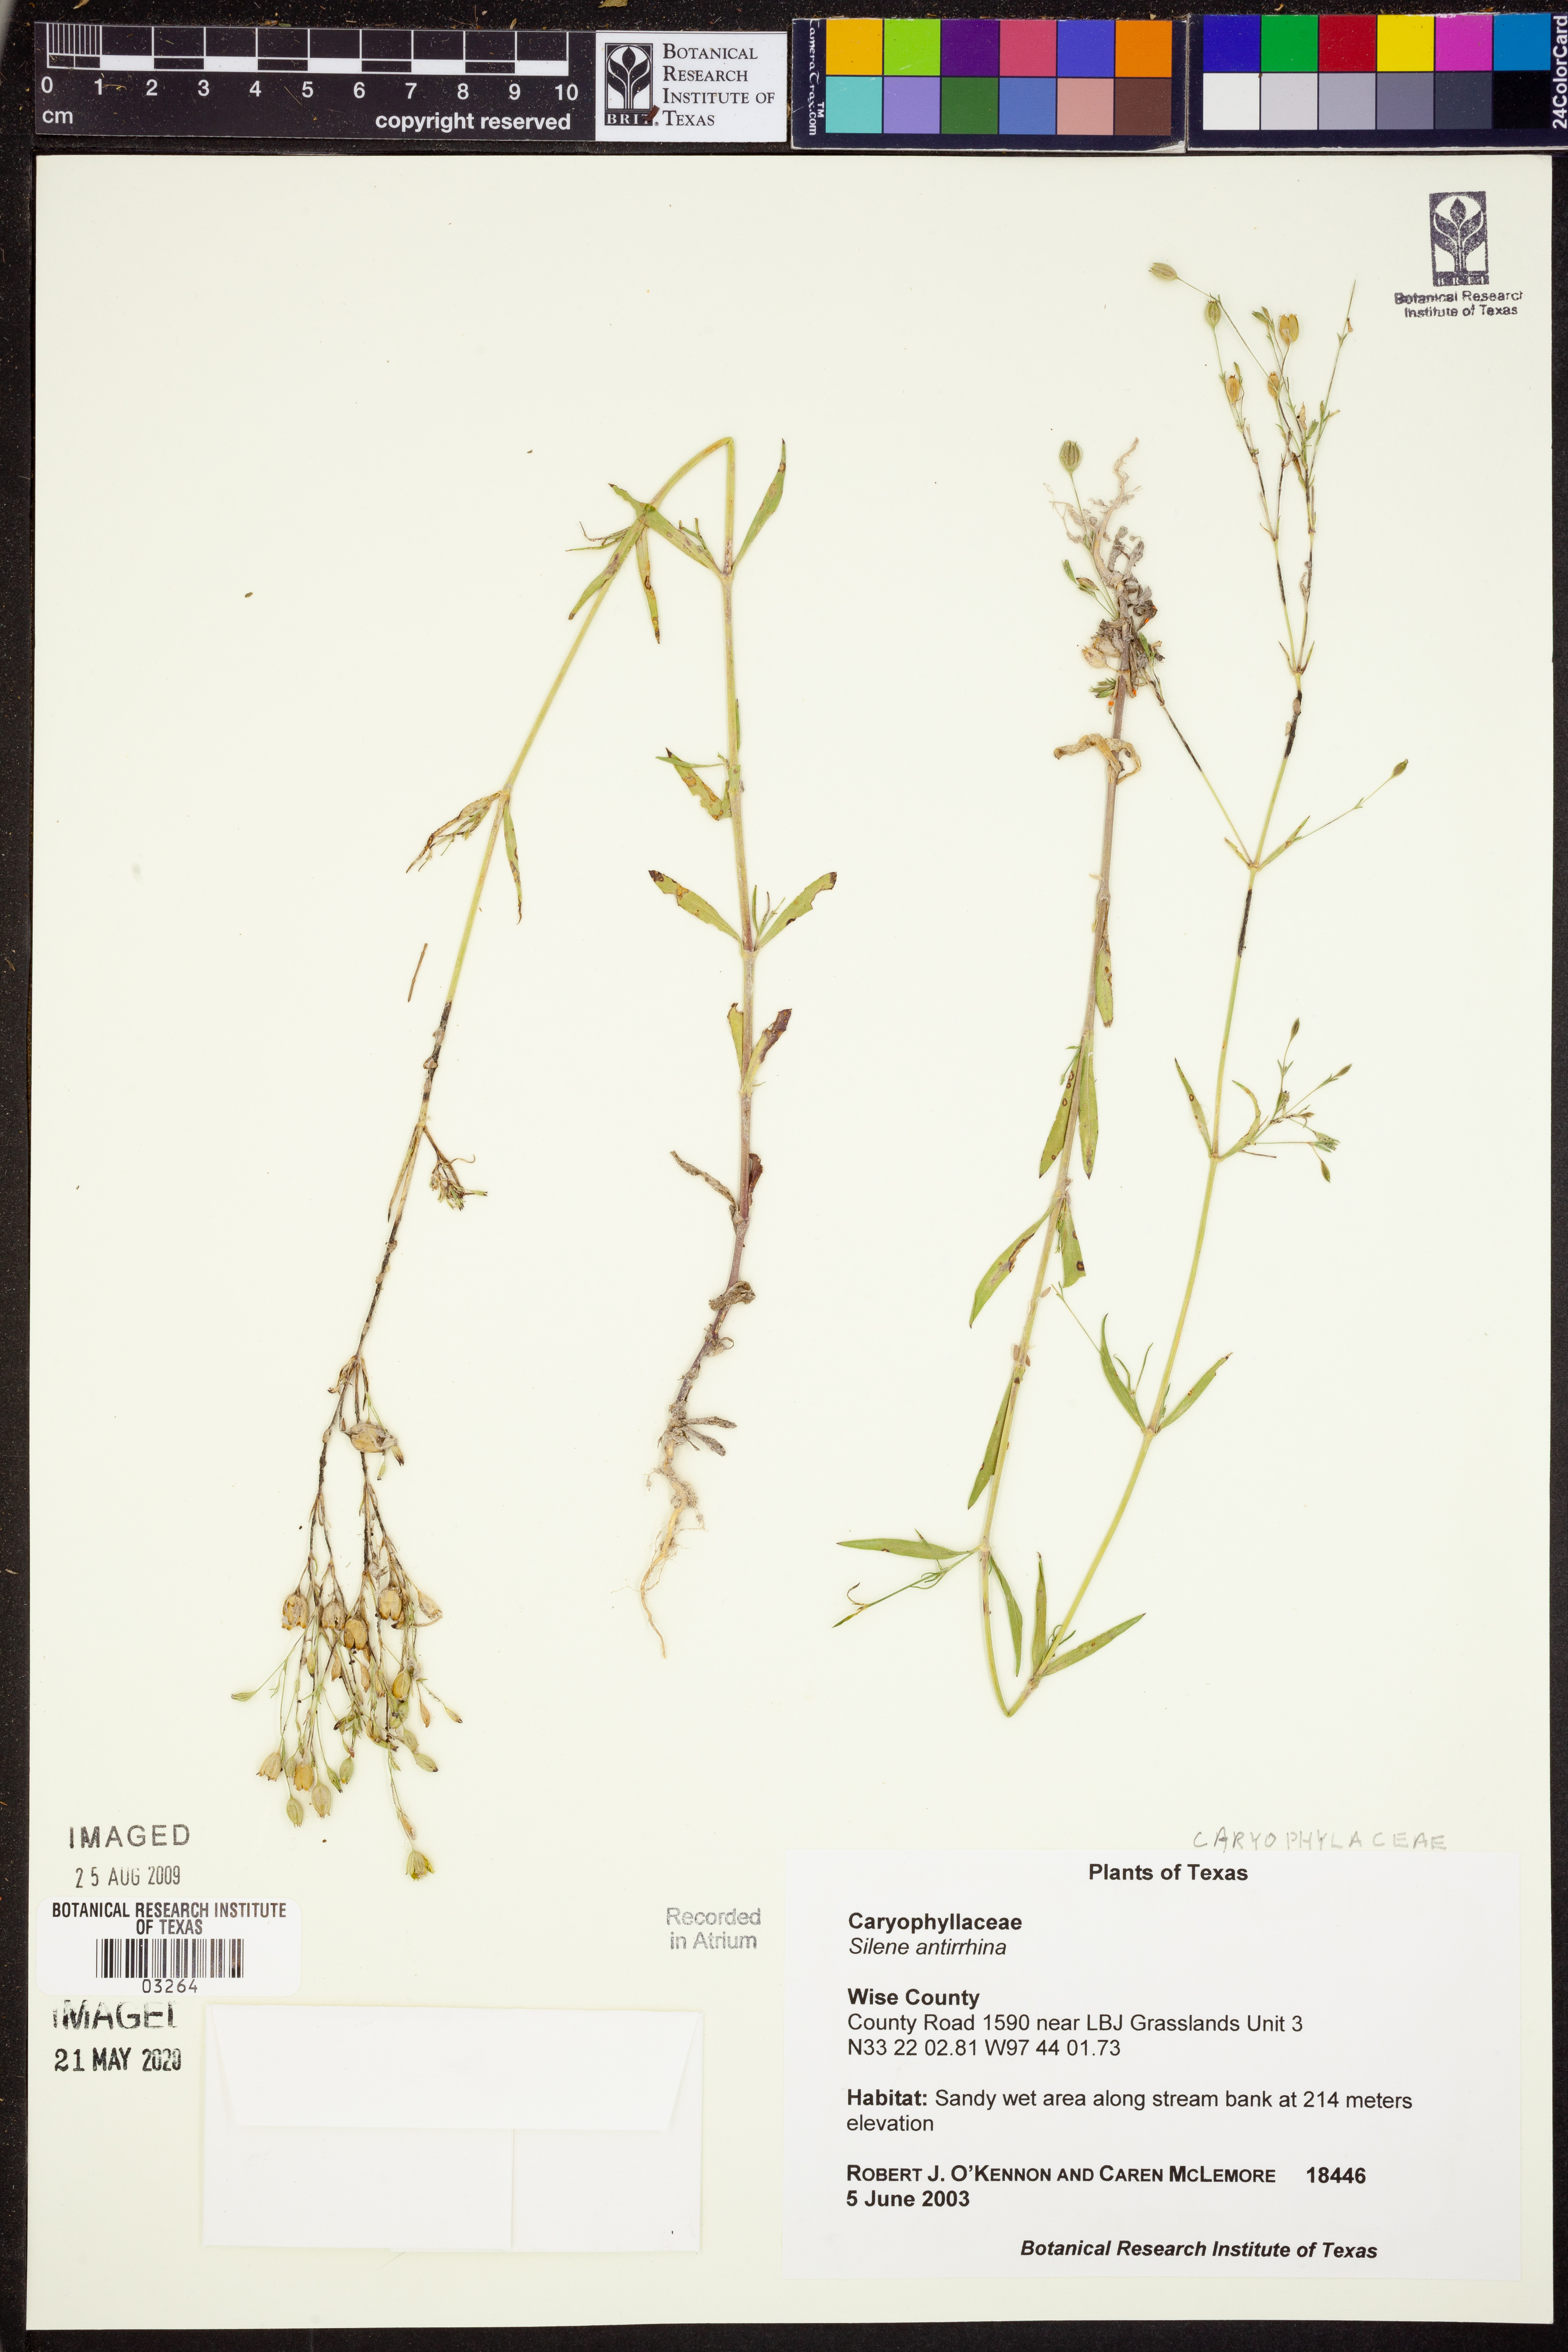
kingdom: Plantae
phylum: Tracheophyta
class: Magnoliopsida
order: Caryophyllales
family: Caryophyllaceae
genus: Silene
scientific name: Silene antirrhina
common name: Sleepy catchfly
